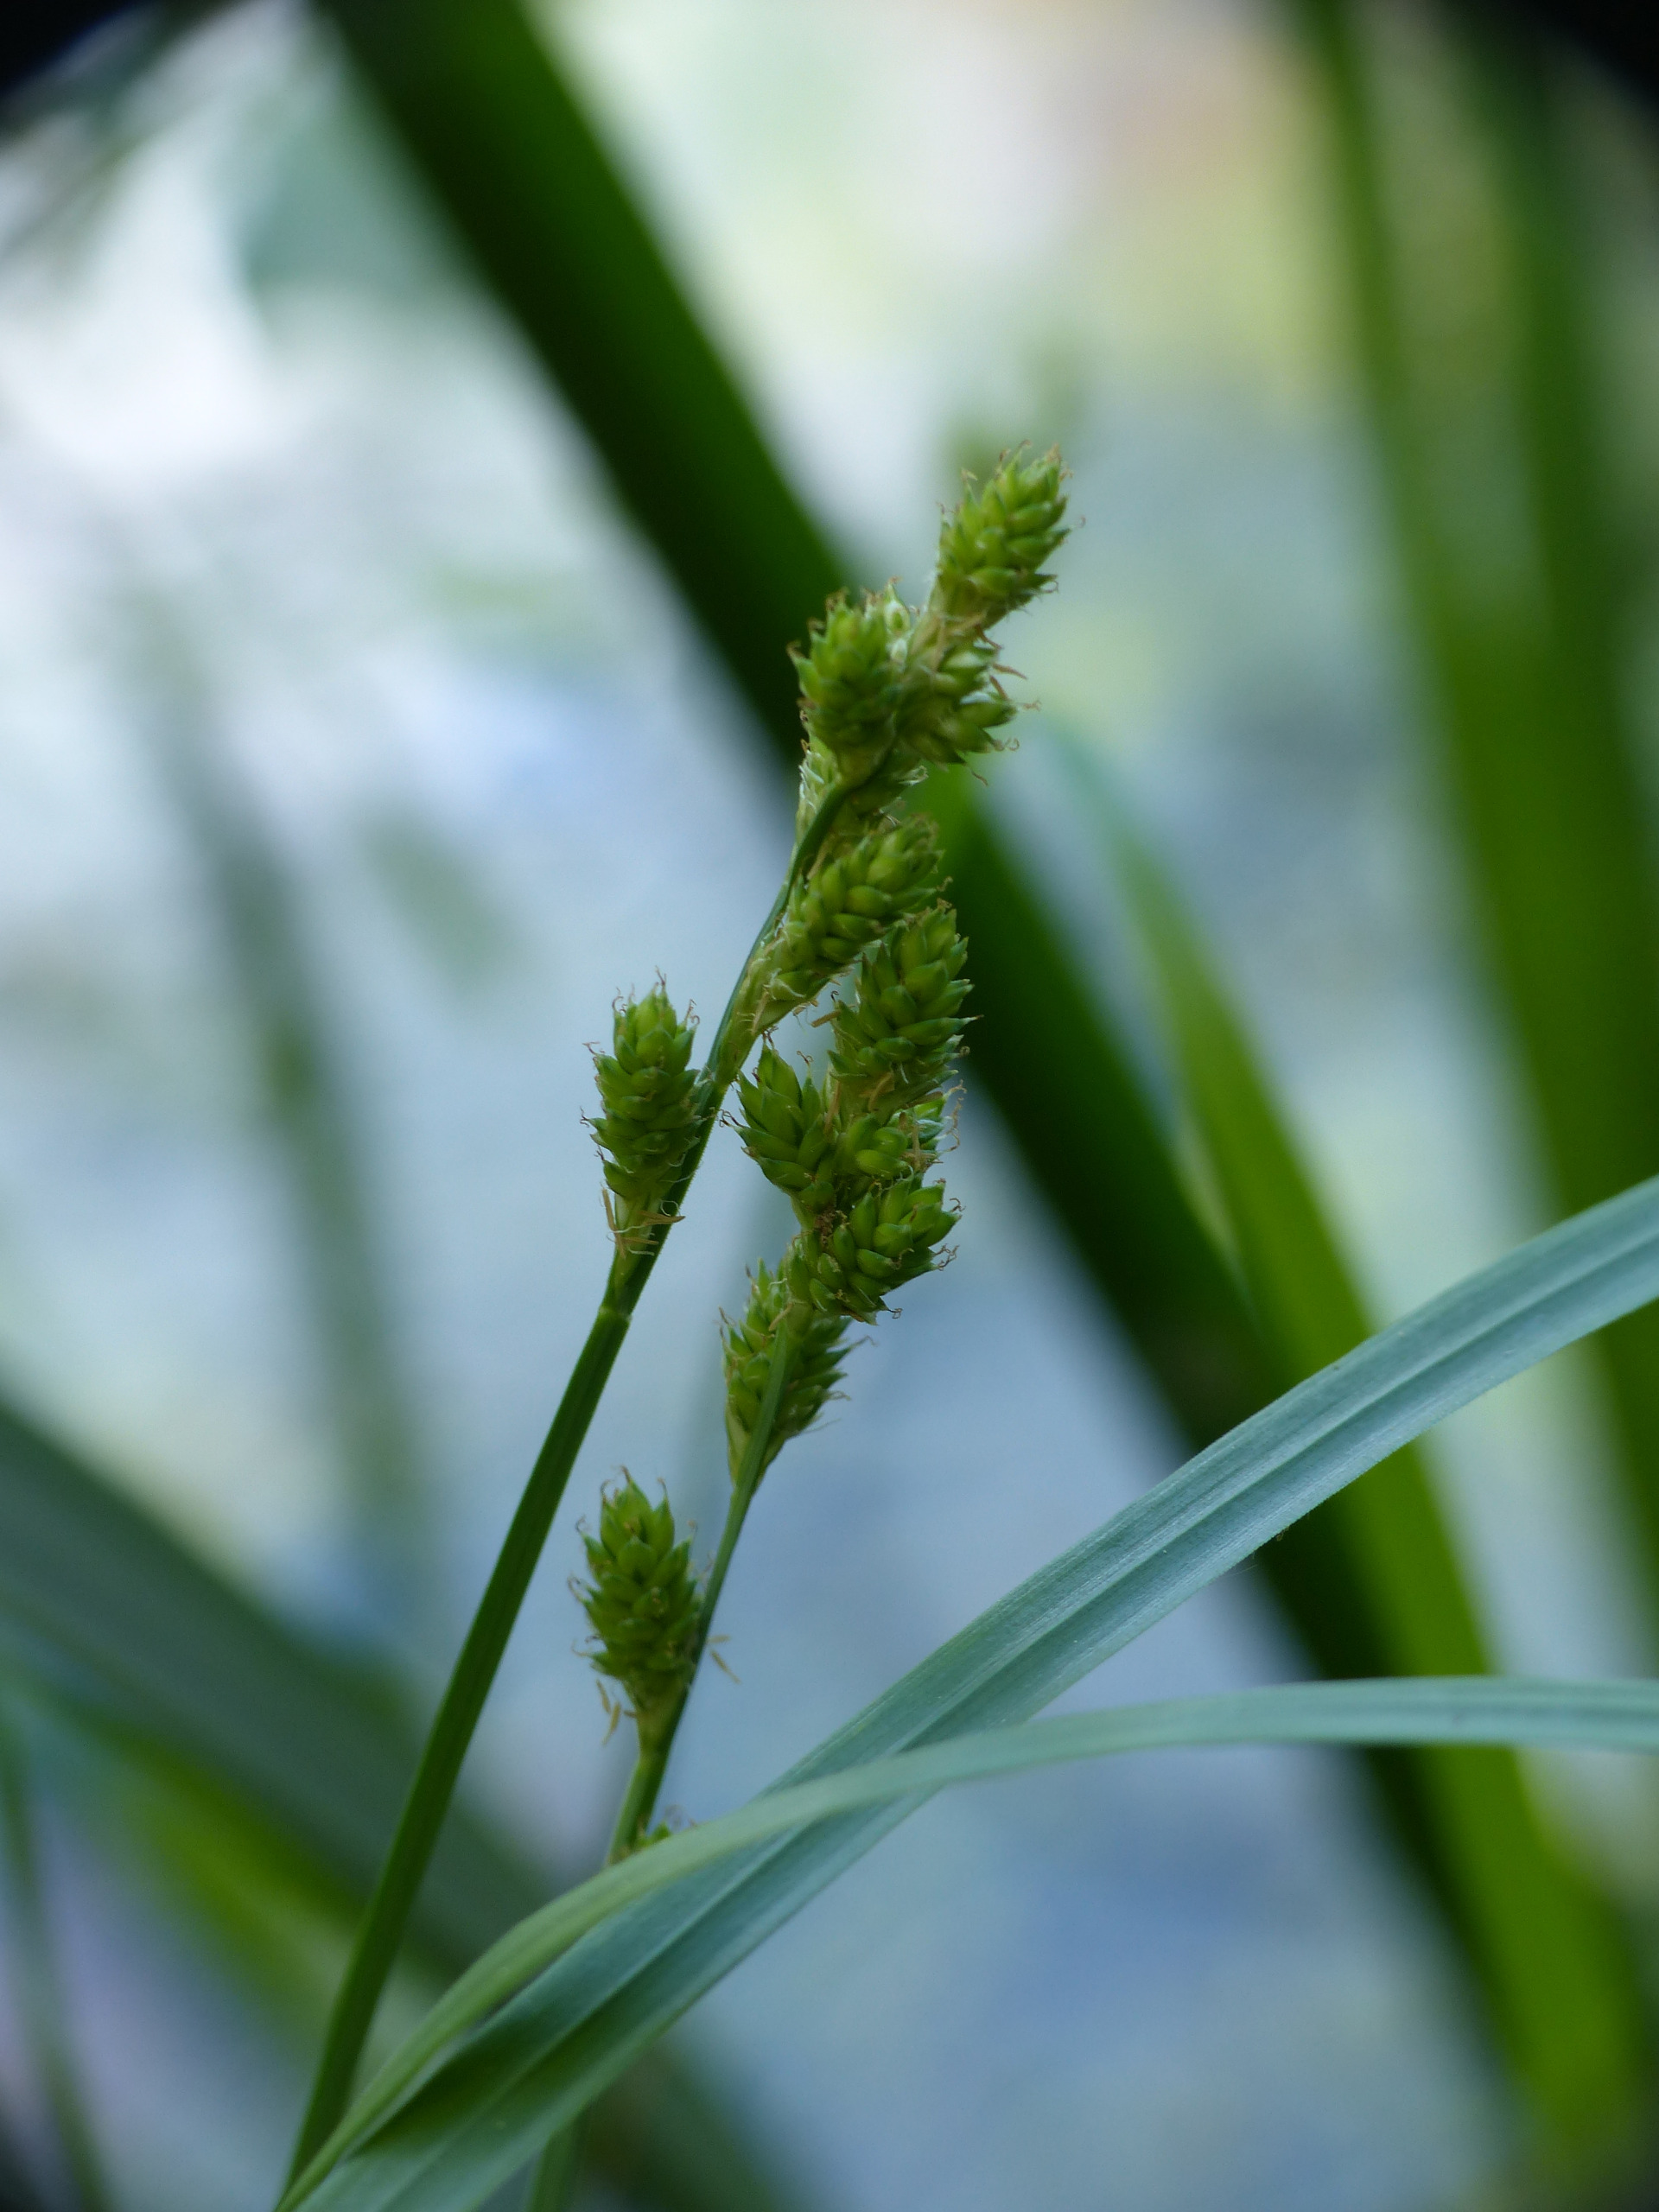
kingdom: Plantae
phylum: Tracheophyta
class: Liliopsida
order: Poales
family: Cyperaceae
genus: Carex
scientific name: Carex canescens
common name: Grå star
